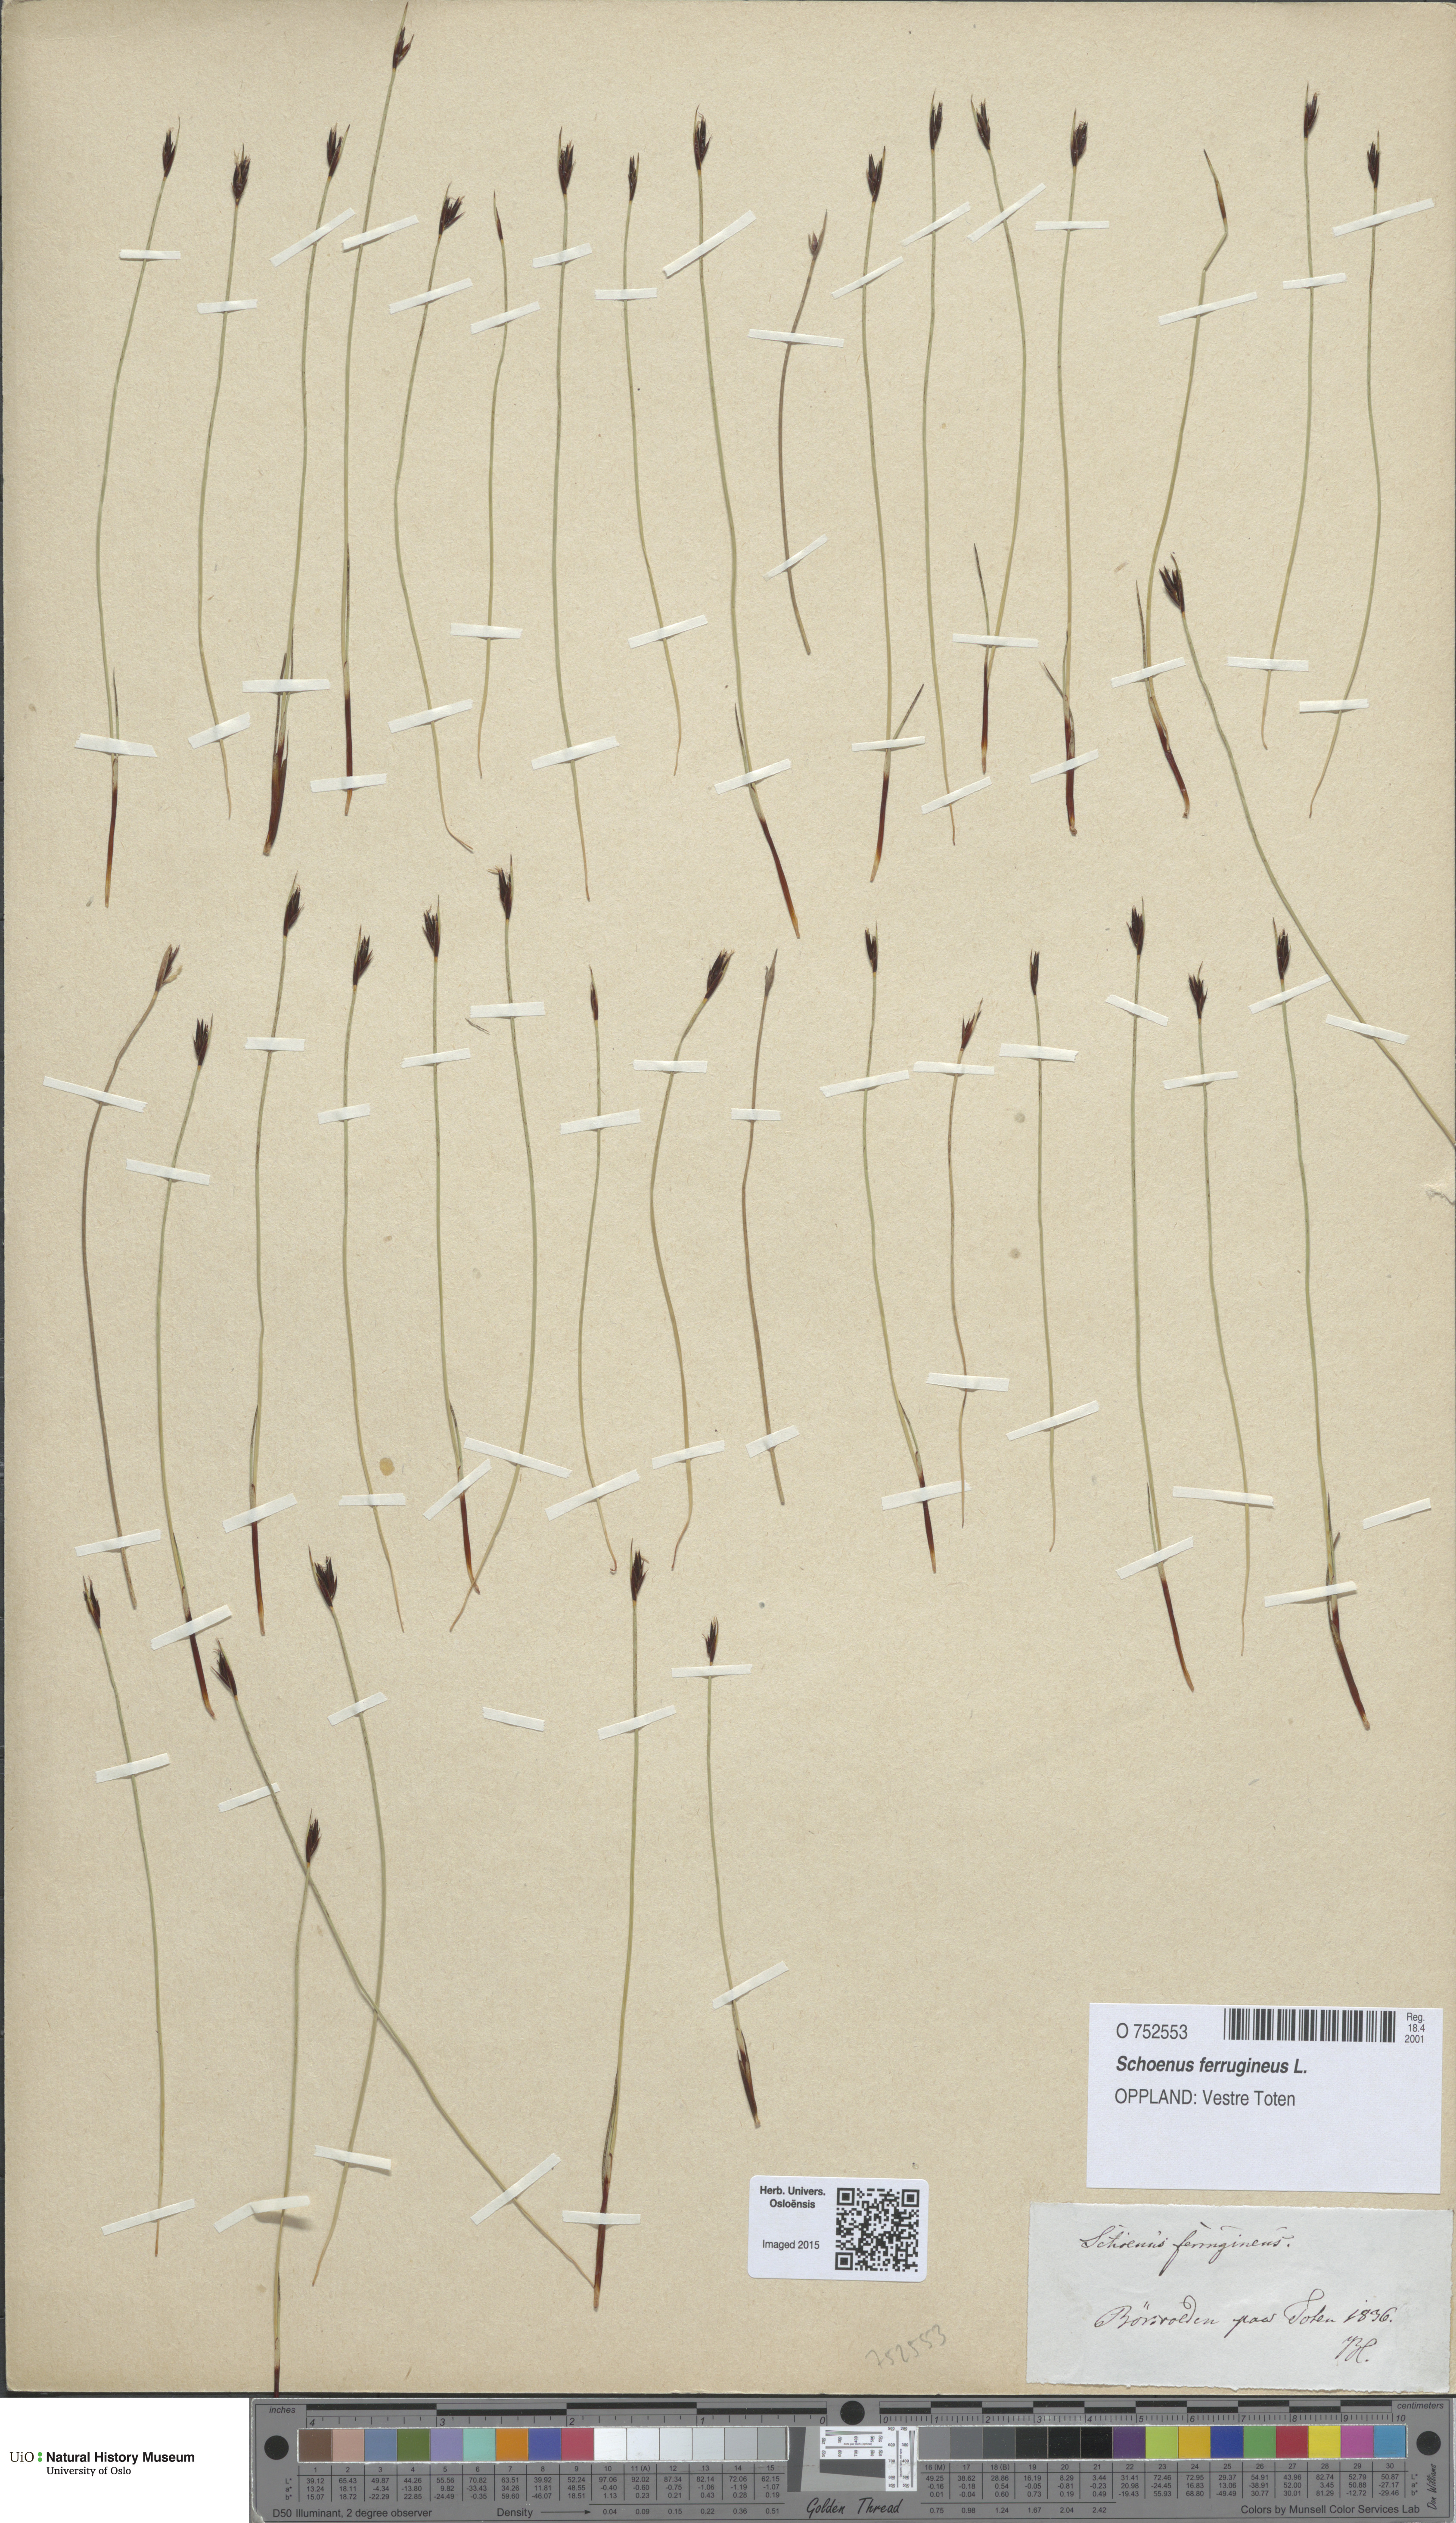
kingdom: Plantae
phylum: Tracheophyta
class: Liliopsida
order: Poales
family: Cyperaceae
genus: Schoenus
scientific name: Schoenus ferrugineus
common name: Brown bog-rush
